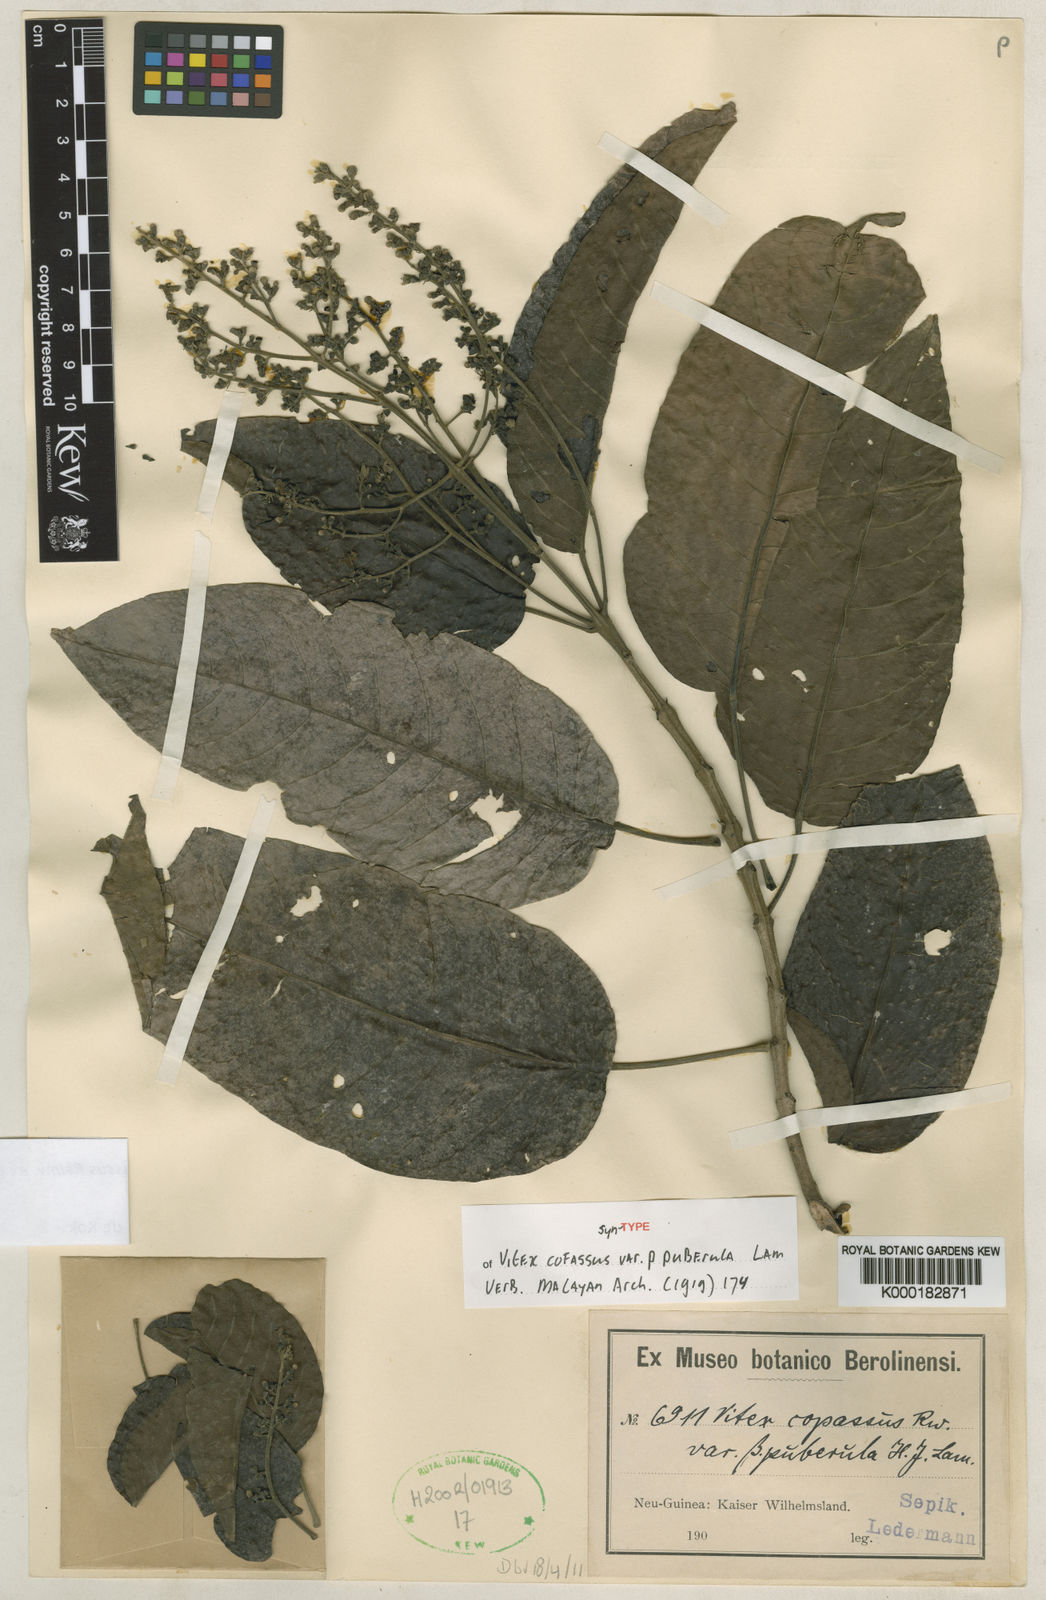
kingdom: Plantae
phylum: Tracheophyta
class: Magnoliopsida
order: Lamiales
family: Lamiaceae
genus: Vitex
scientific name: Vitex cofassus
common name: New guinea-teak
